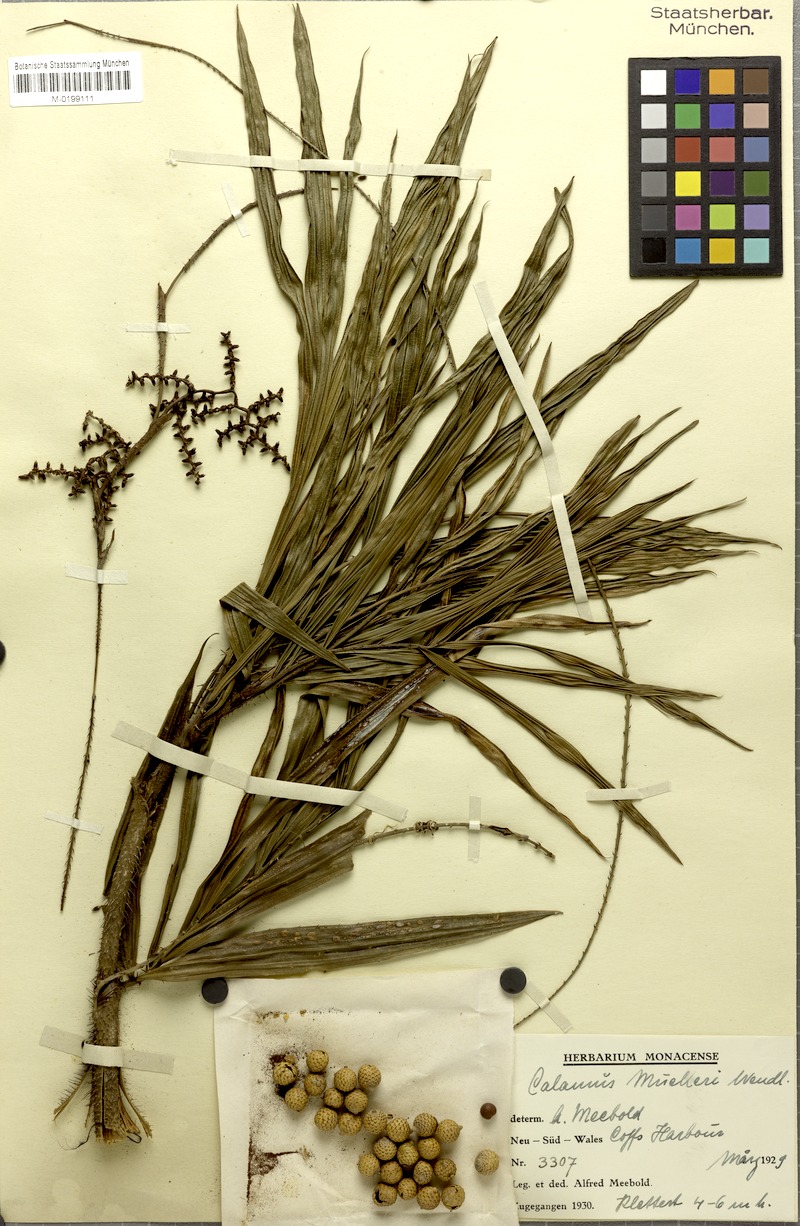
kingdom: Plantae
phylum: Tracheophyta
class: Liliopsida
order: Arecales
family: Arecaceae
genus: Calamus
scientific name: Calamus muelleri
